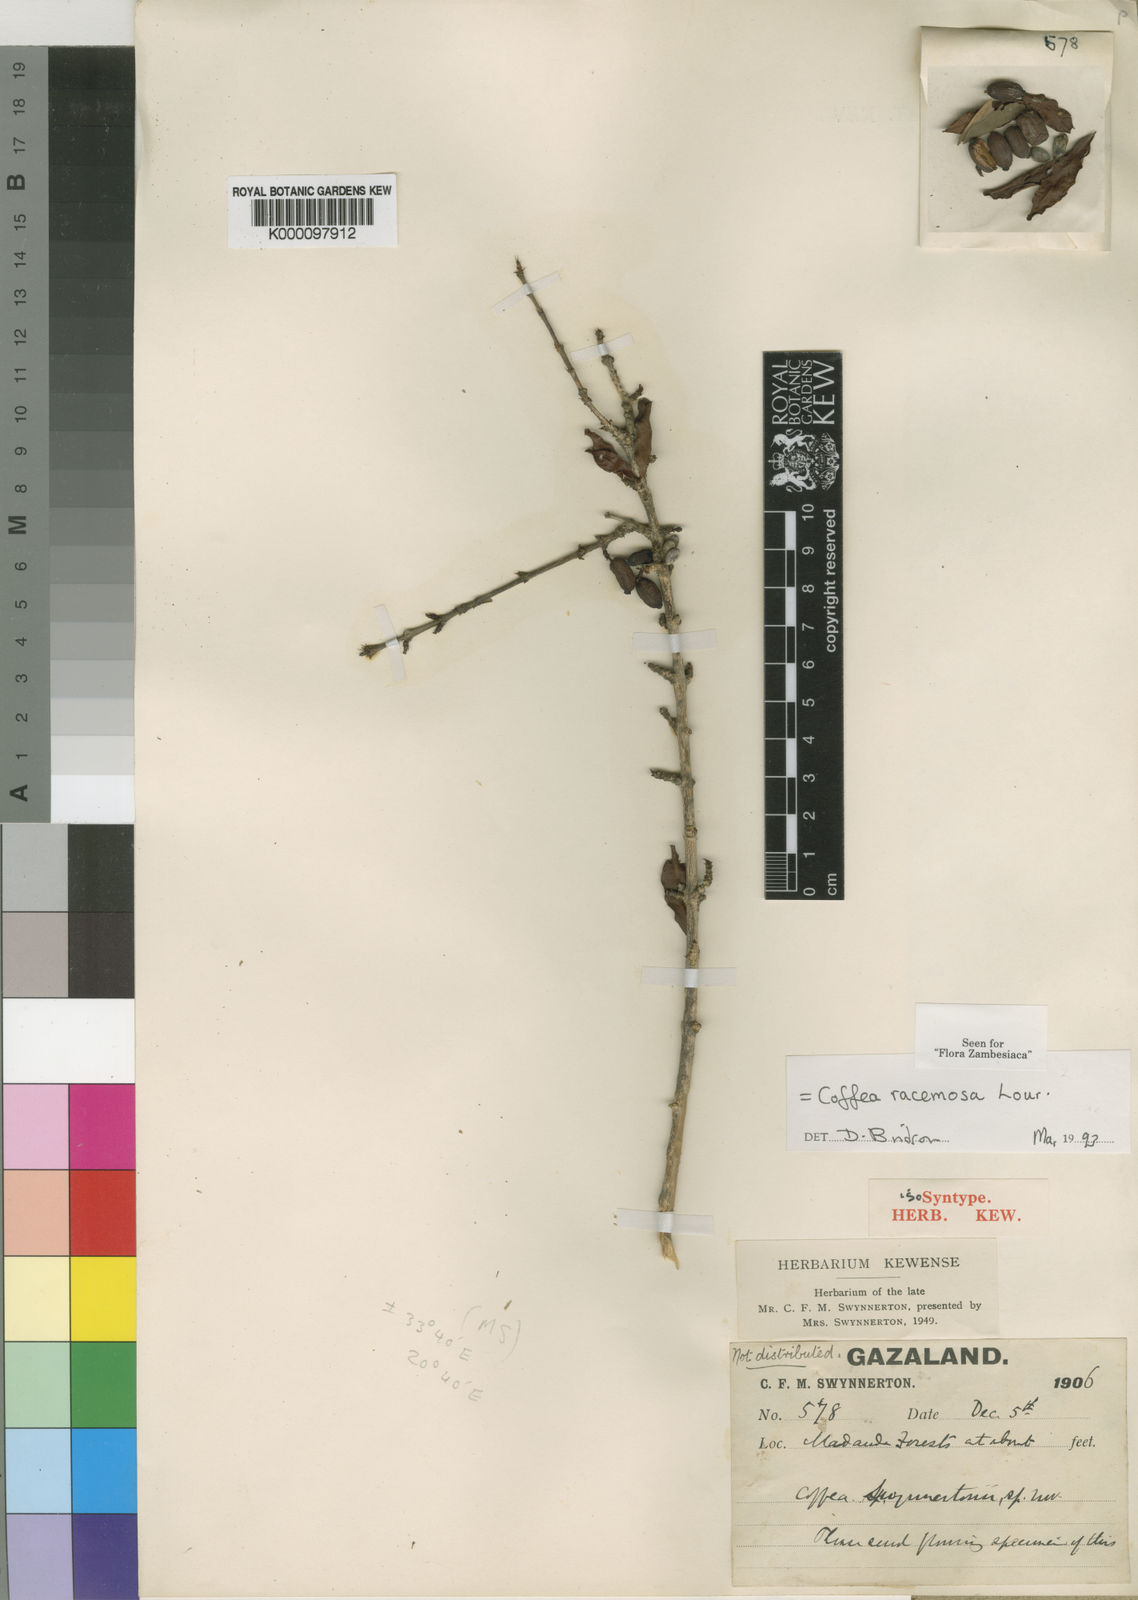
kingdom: Plantae
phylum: Tracheophyta
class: Magnoliopsida
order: Gentianales
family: Rubiaceae
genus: Coffea
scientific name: Coffea racemosa
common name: Inhambane coffee
